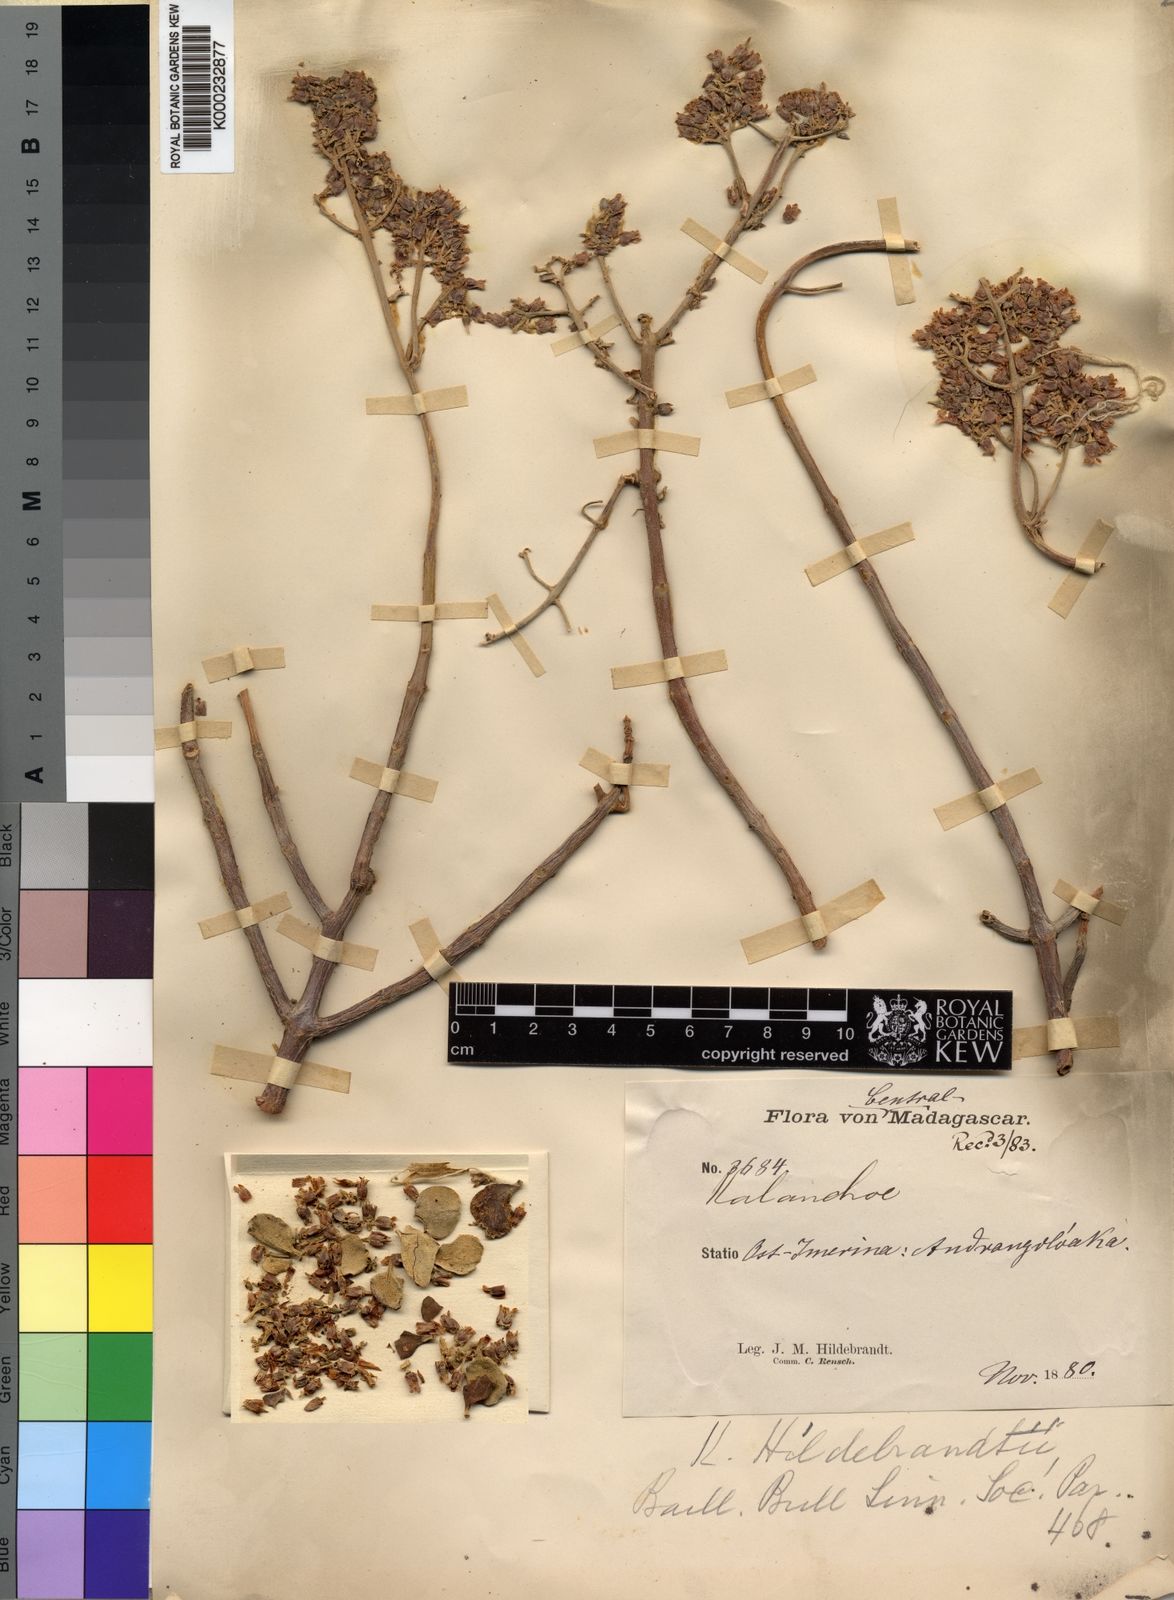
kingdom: Plantae
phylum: Tracheophyta
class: Magnoliopsida
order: Saxifragales
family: Crassulaceae
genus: Kalanchoe
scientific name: Kalanchoe hildebrandtii
